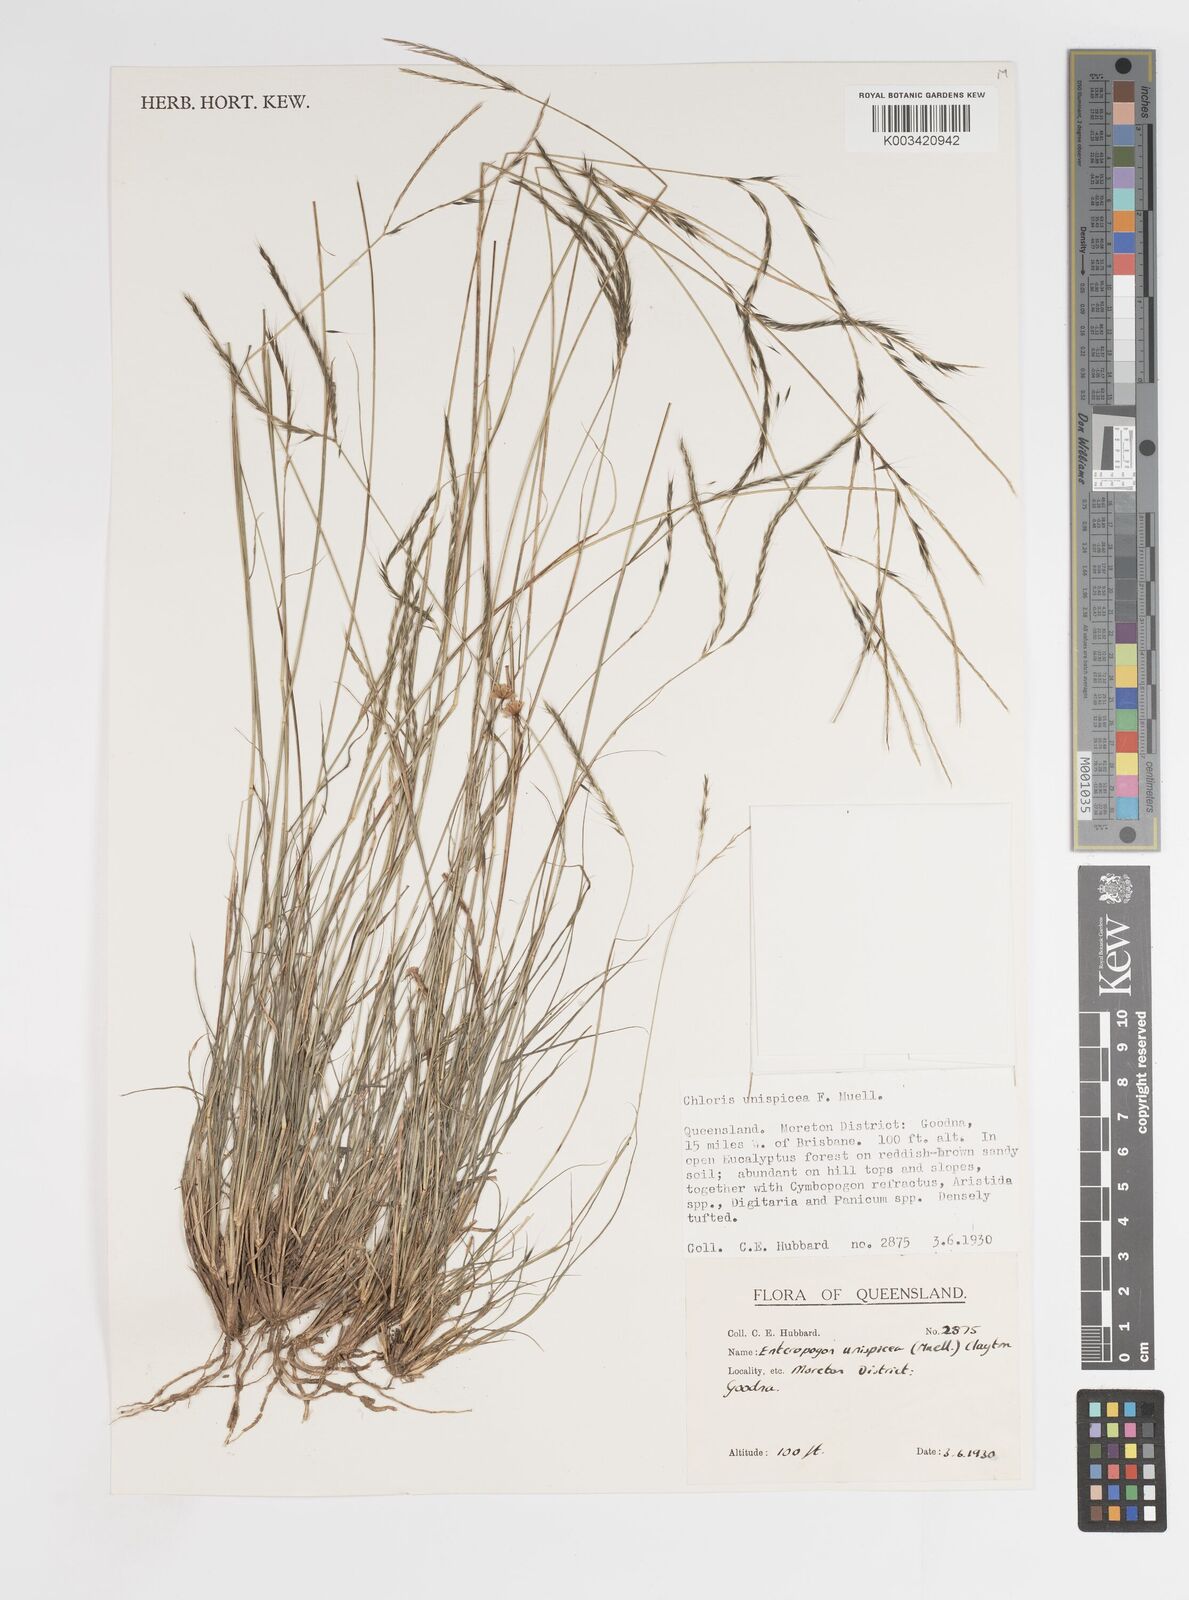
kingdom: Plantae
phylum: Tracheophyta
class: Liliopsida
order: Poales
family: Poaceae
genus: Enteropogon
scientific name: Enteropogon unispiceus
